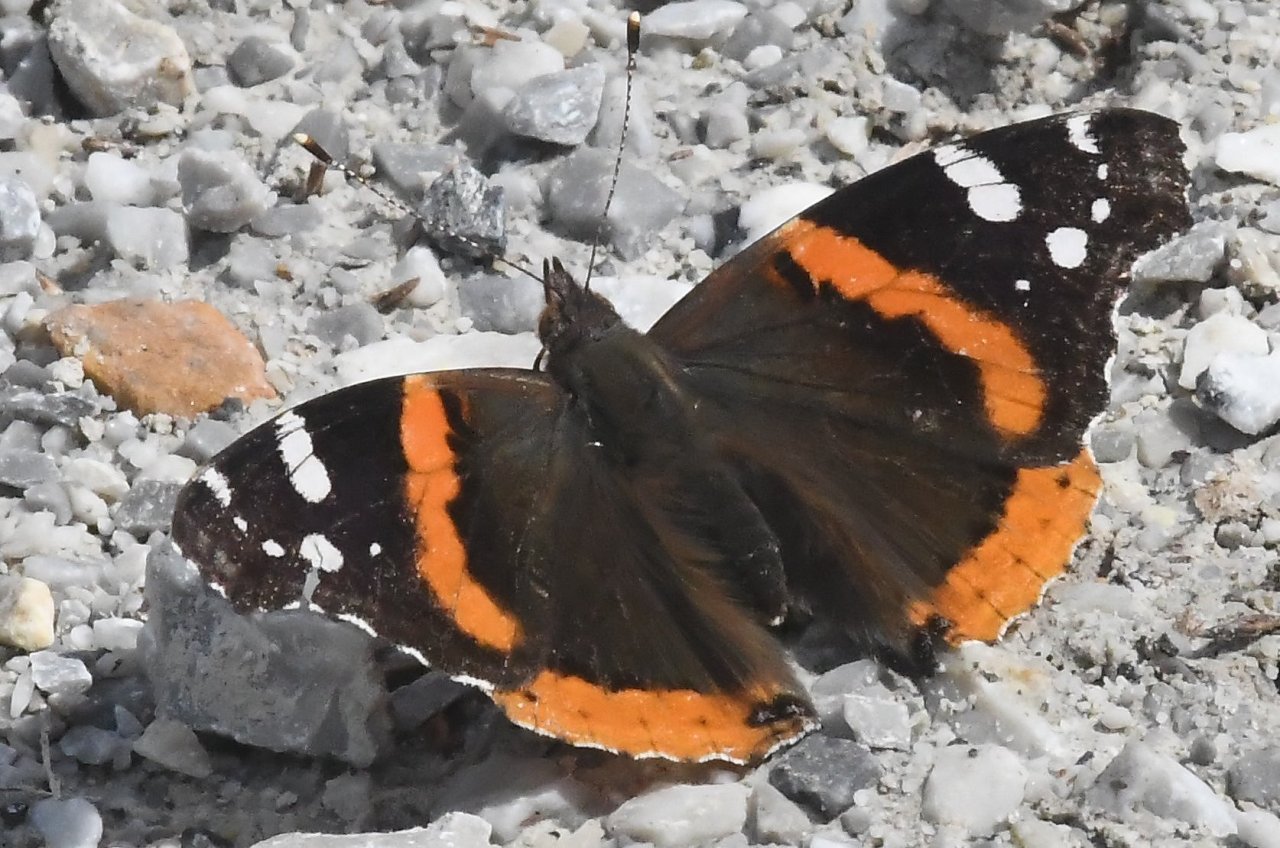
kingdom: Animalia
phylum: Arthropoda
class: Insecta
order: Lepidoptera
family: Nymphalidae
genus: Vanessa
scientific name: Vanessa atalanta
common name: Red Admiral
